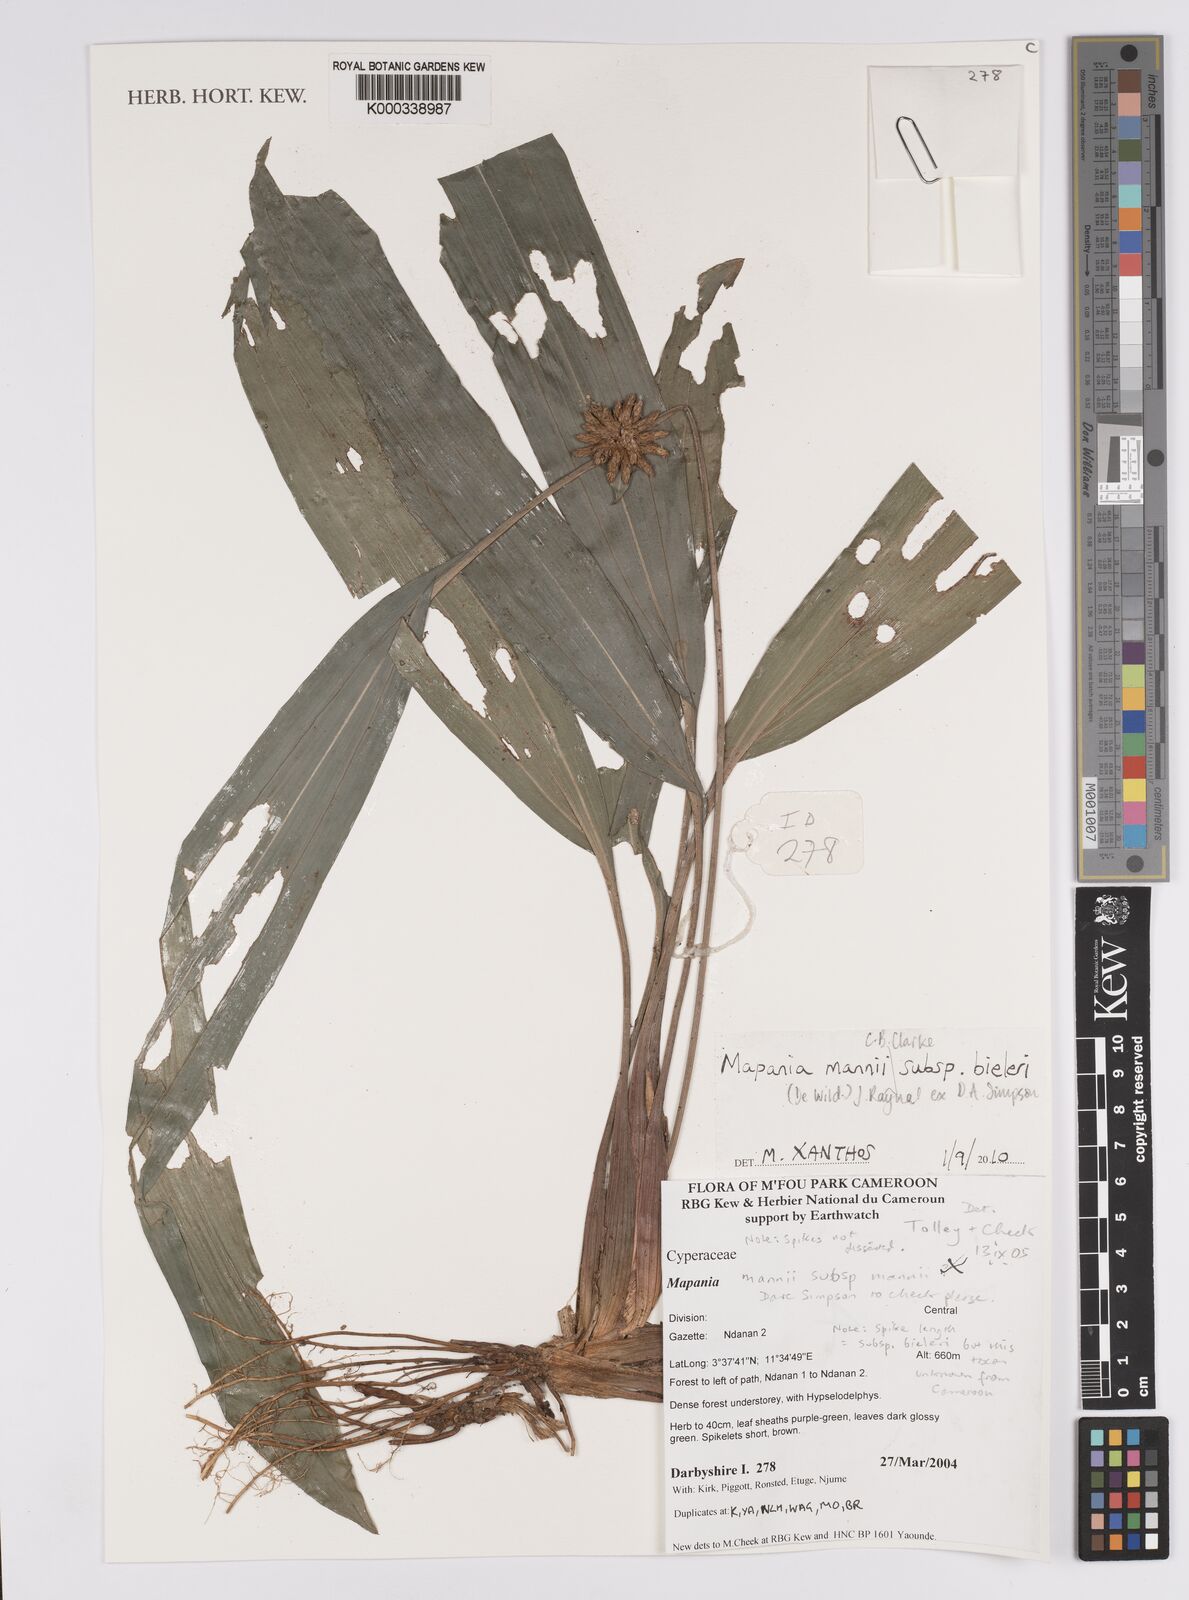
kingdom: Plantae
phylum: Tracheophyta
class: Liliopsida
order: Poales
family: Cyperaceae
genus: Mapania
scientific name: Mapania mannii
